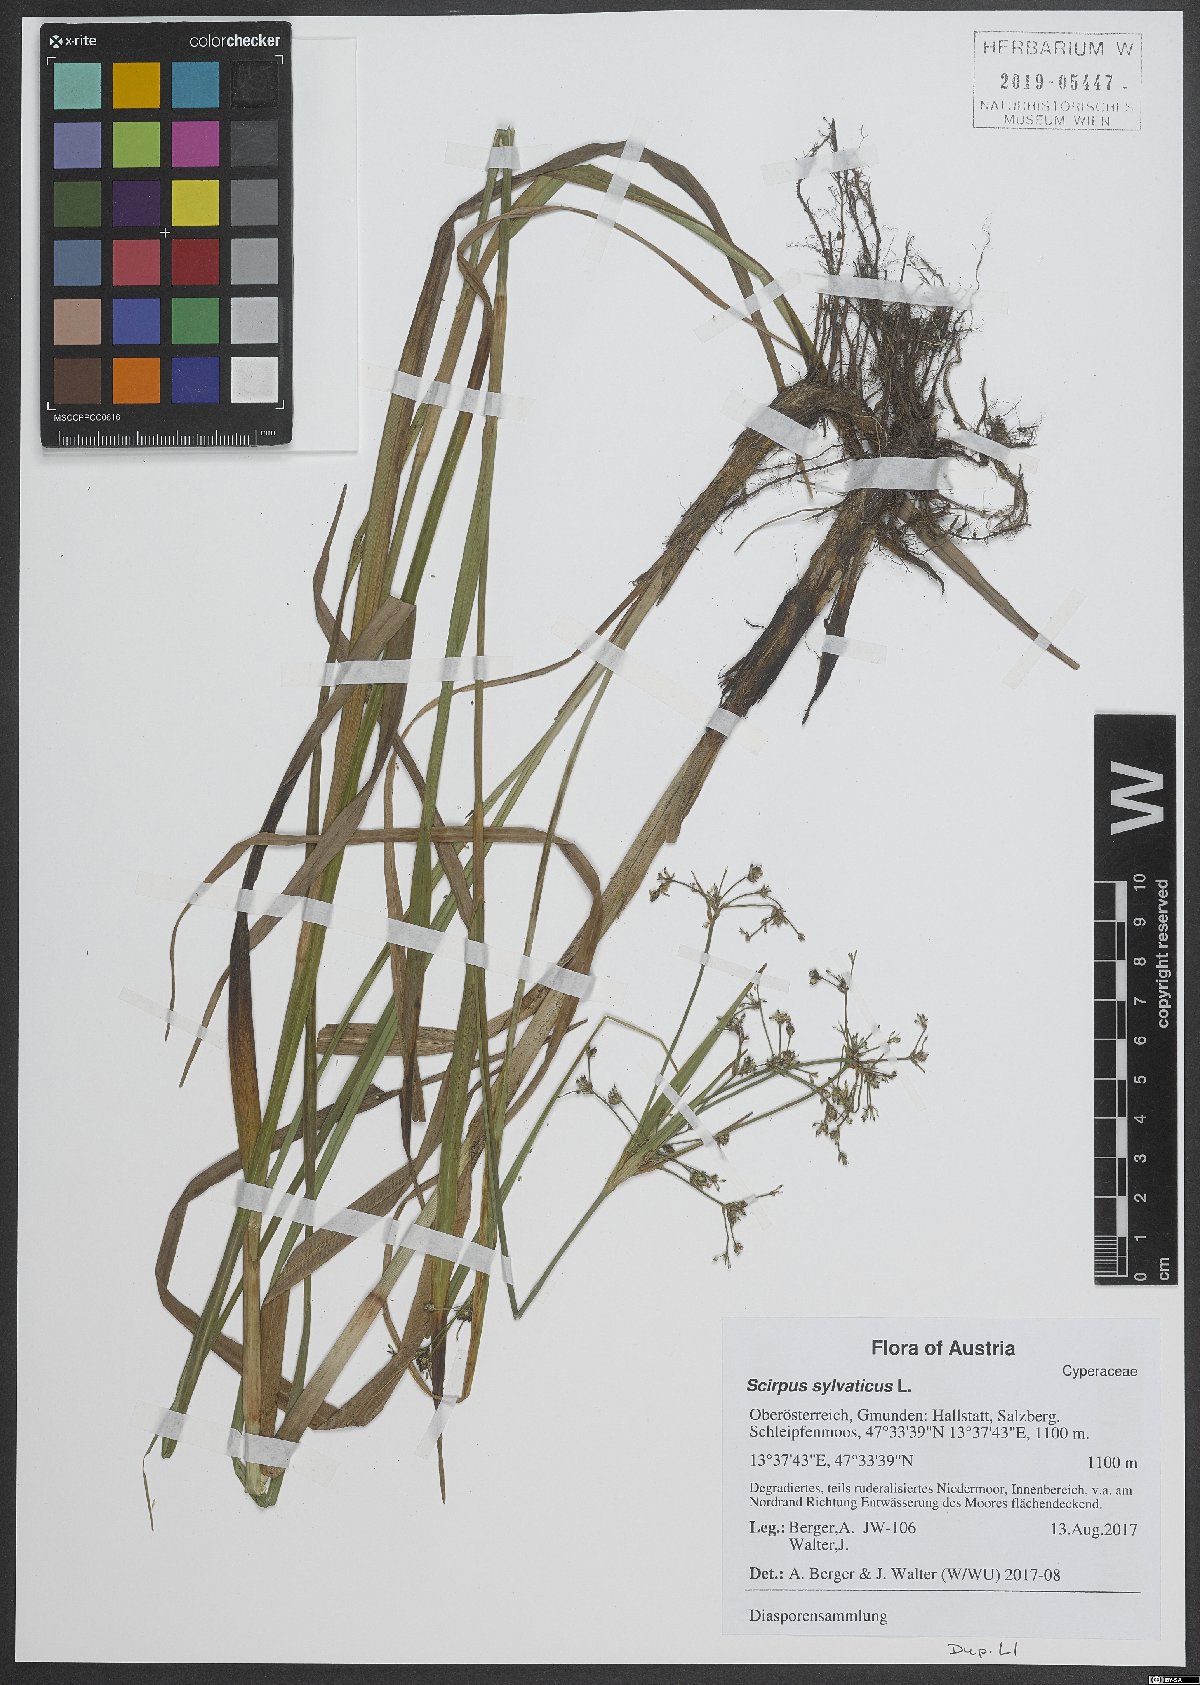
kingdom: Plantae
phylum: Tracheophyta
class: Liliopsida
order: Poales
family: Cyperaceae
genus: Scirpus
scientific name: Scirpus sylvaticus
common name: Wood club-rush
